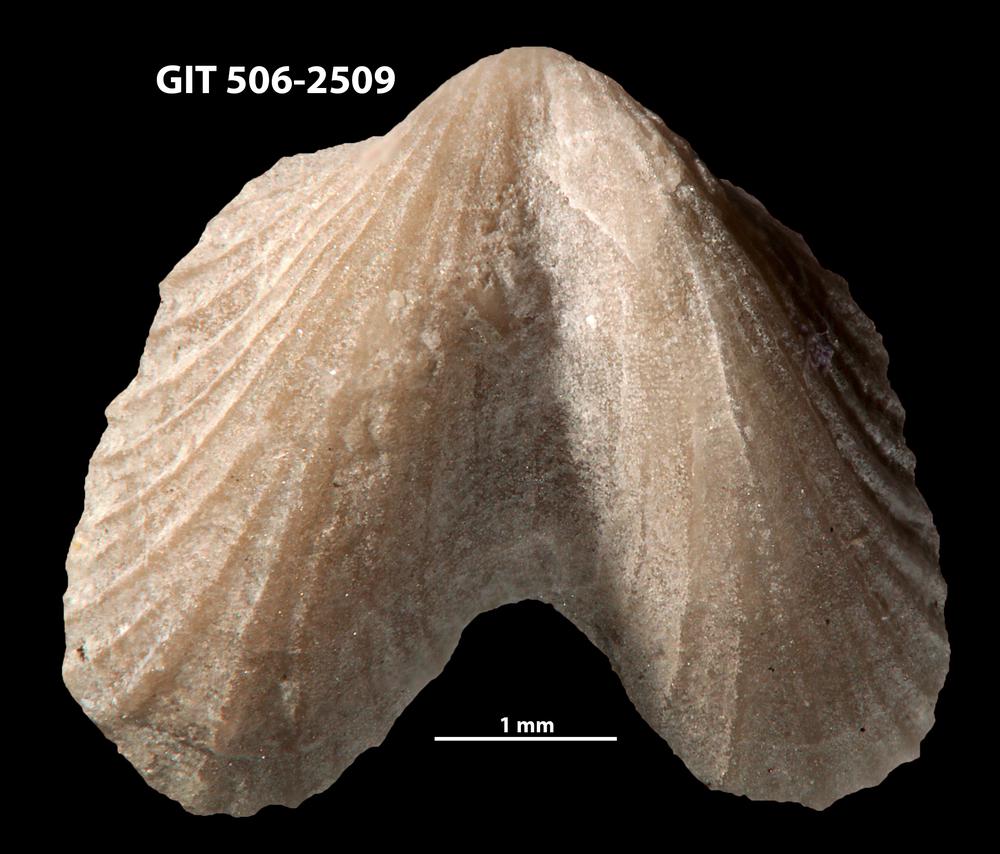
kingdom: Animalia
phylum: Brachiopoda
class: Rhynchonellata
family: Dicoelosiidae
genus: Dicoelosia
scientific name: Dicoelosia baltica
